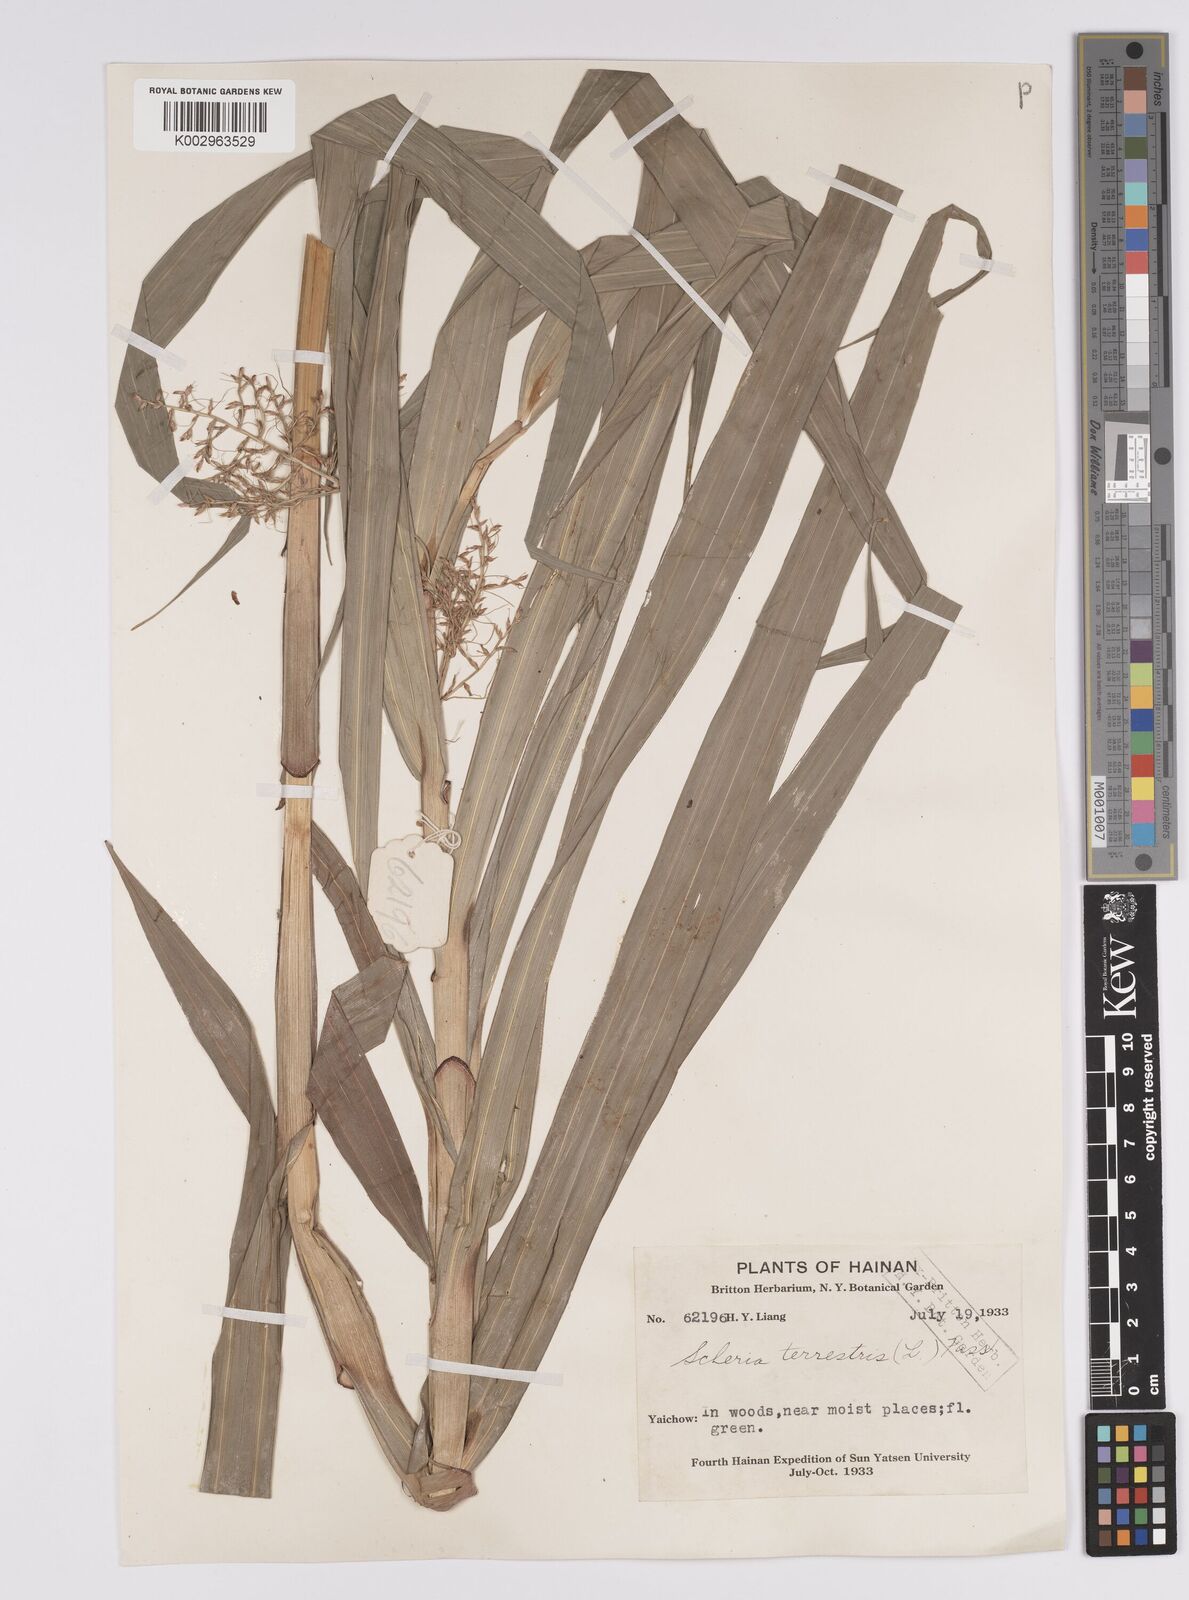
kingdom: Plantae
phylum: Tracheophyta
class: Liliopsida
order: Poales
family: Cyperaceae
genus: Scleria
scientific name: Scleria terrestris
